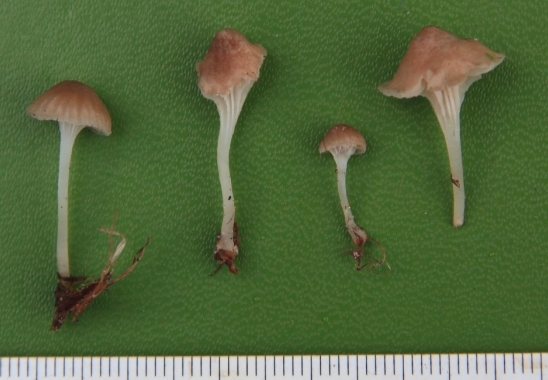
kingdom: Fungi
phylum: Basidiomycota
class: Agaricomycetes
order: Agaricales
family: Mycenaceae
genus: Hemimycena
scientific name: Hemimycena mairei
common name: voks-huesvamp
